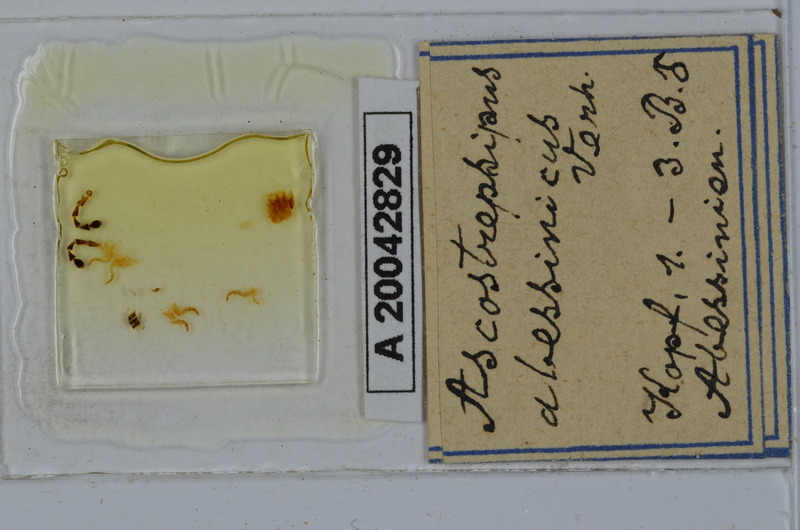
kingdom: Animalia
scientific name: Animalia
